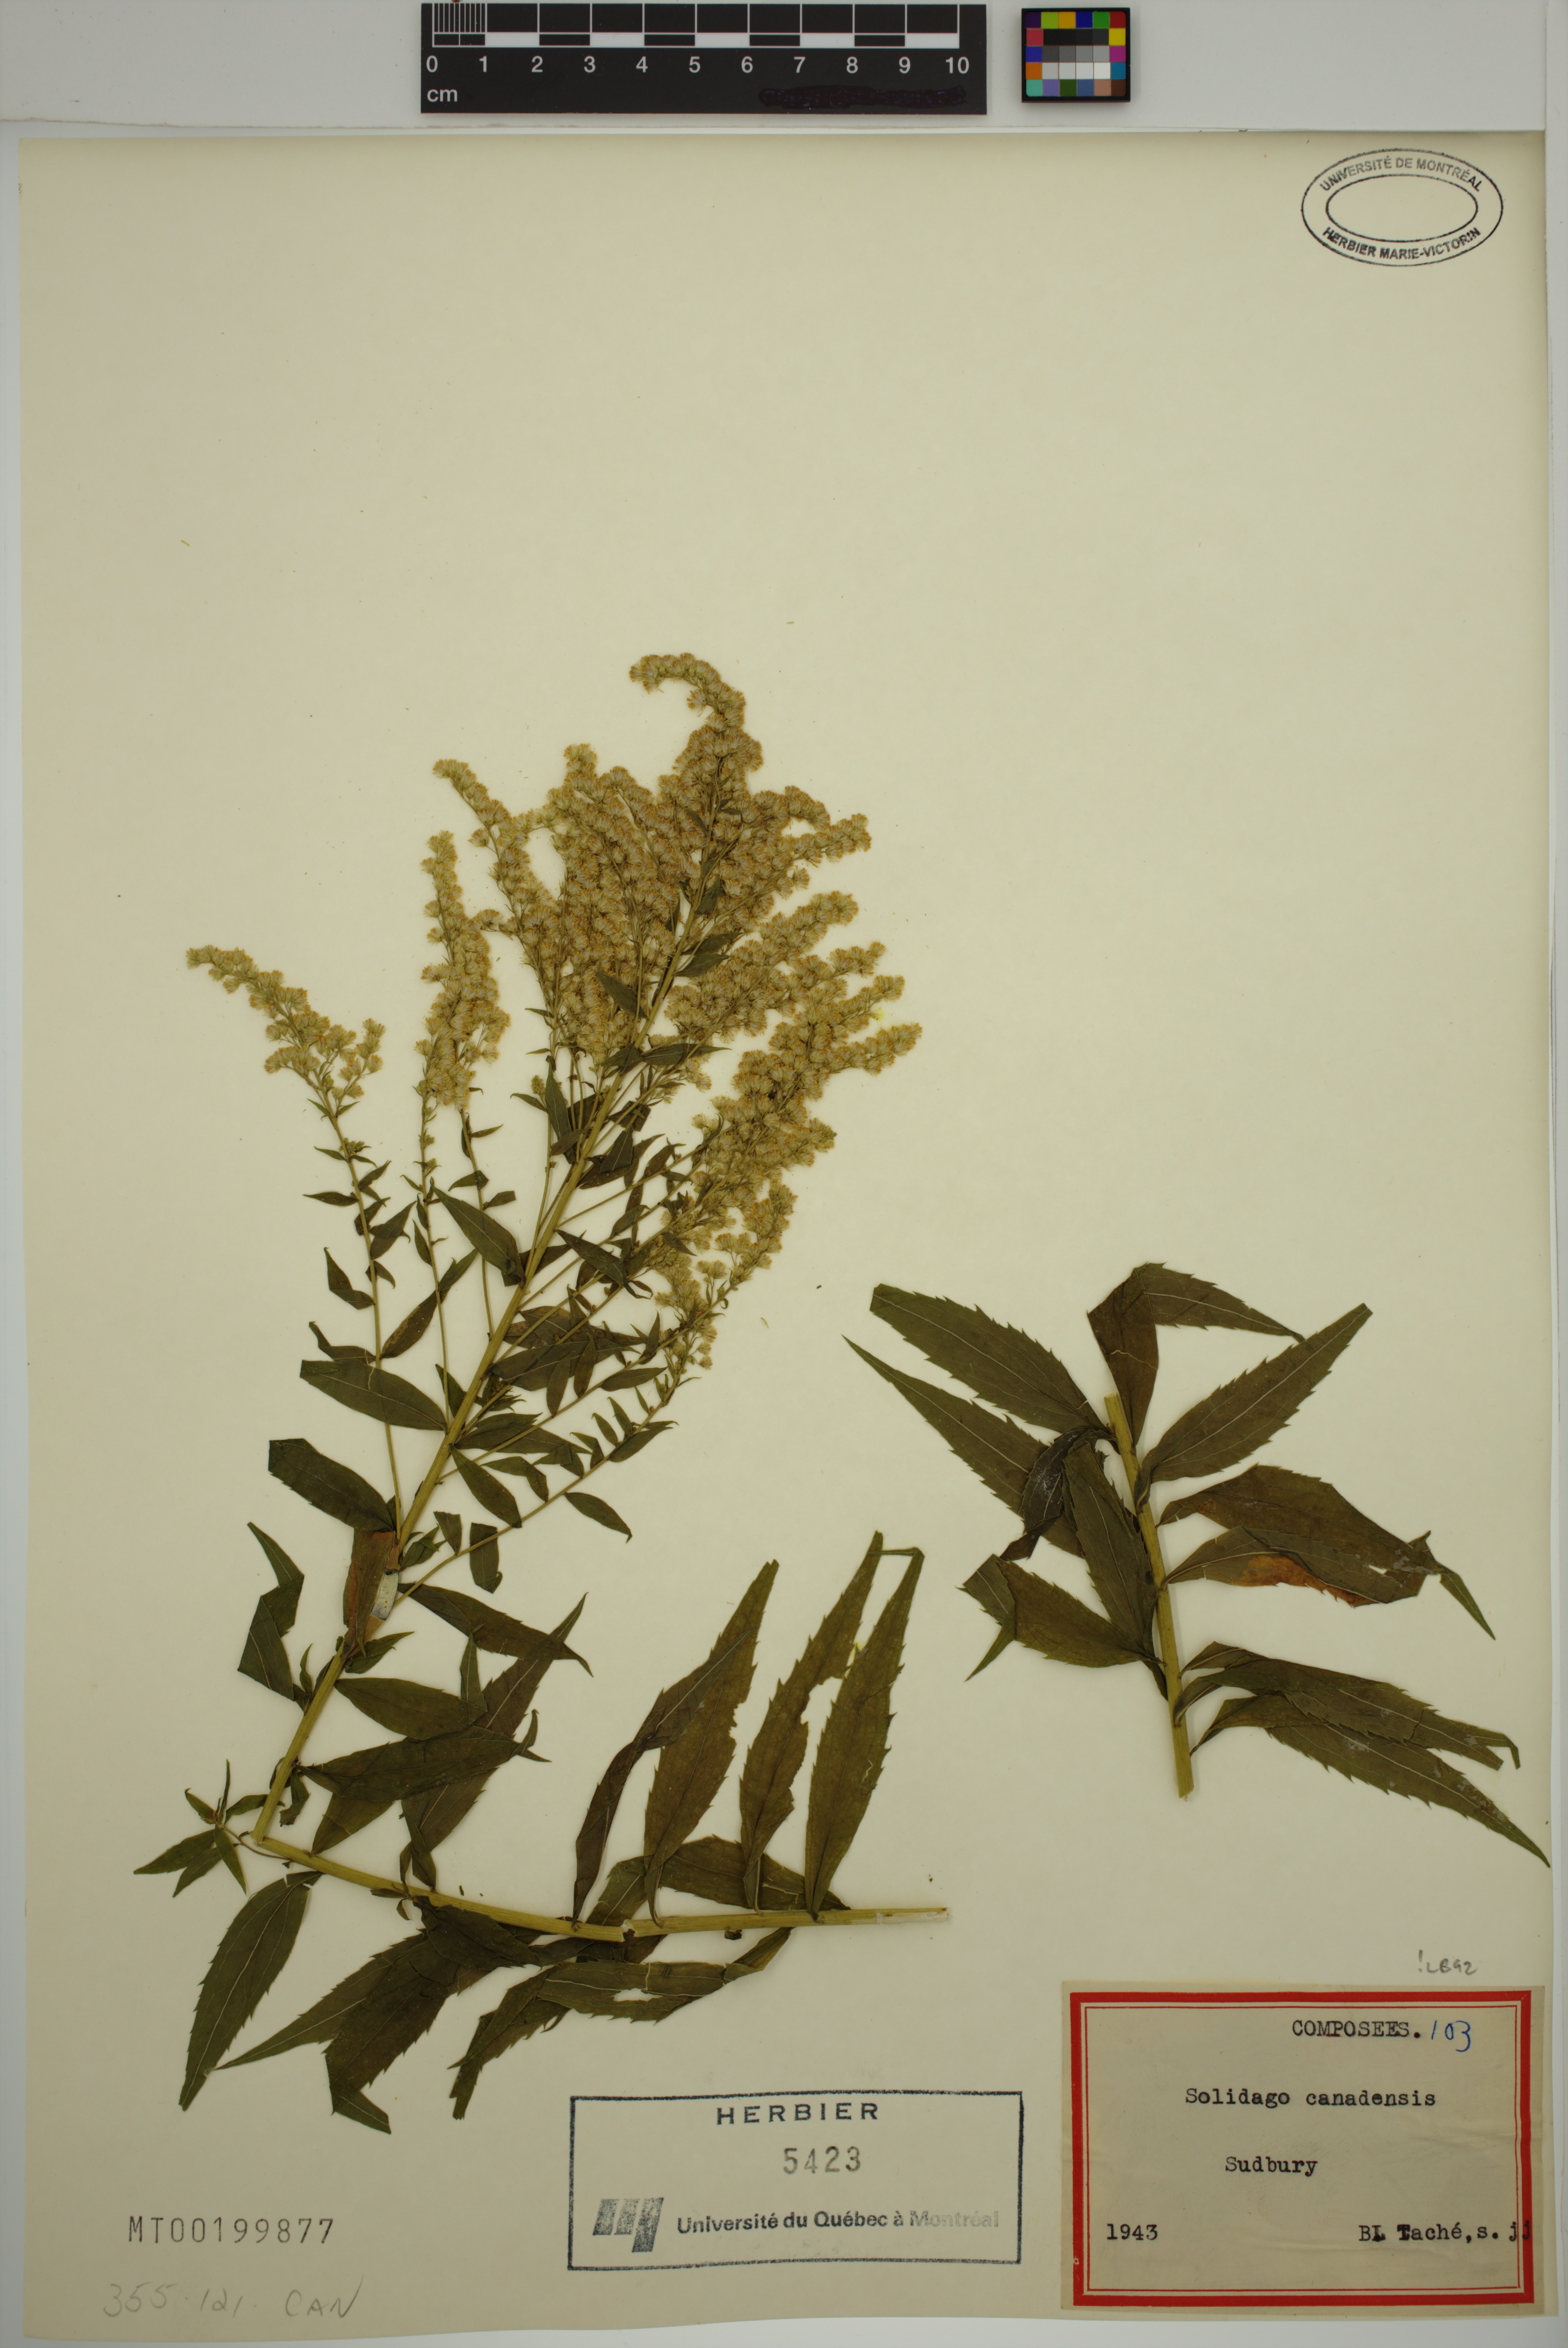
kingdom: Plantae
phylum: Tracheophyta
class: Magnoliopsida
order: Asterales
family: Asteraceae
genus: Solidago
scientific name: Solidago canadensis
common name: Canada goldenrod
